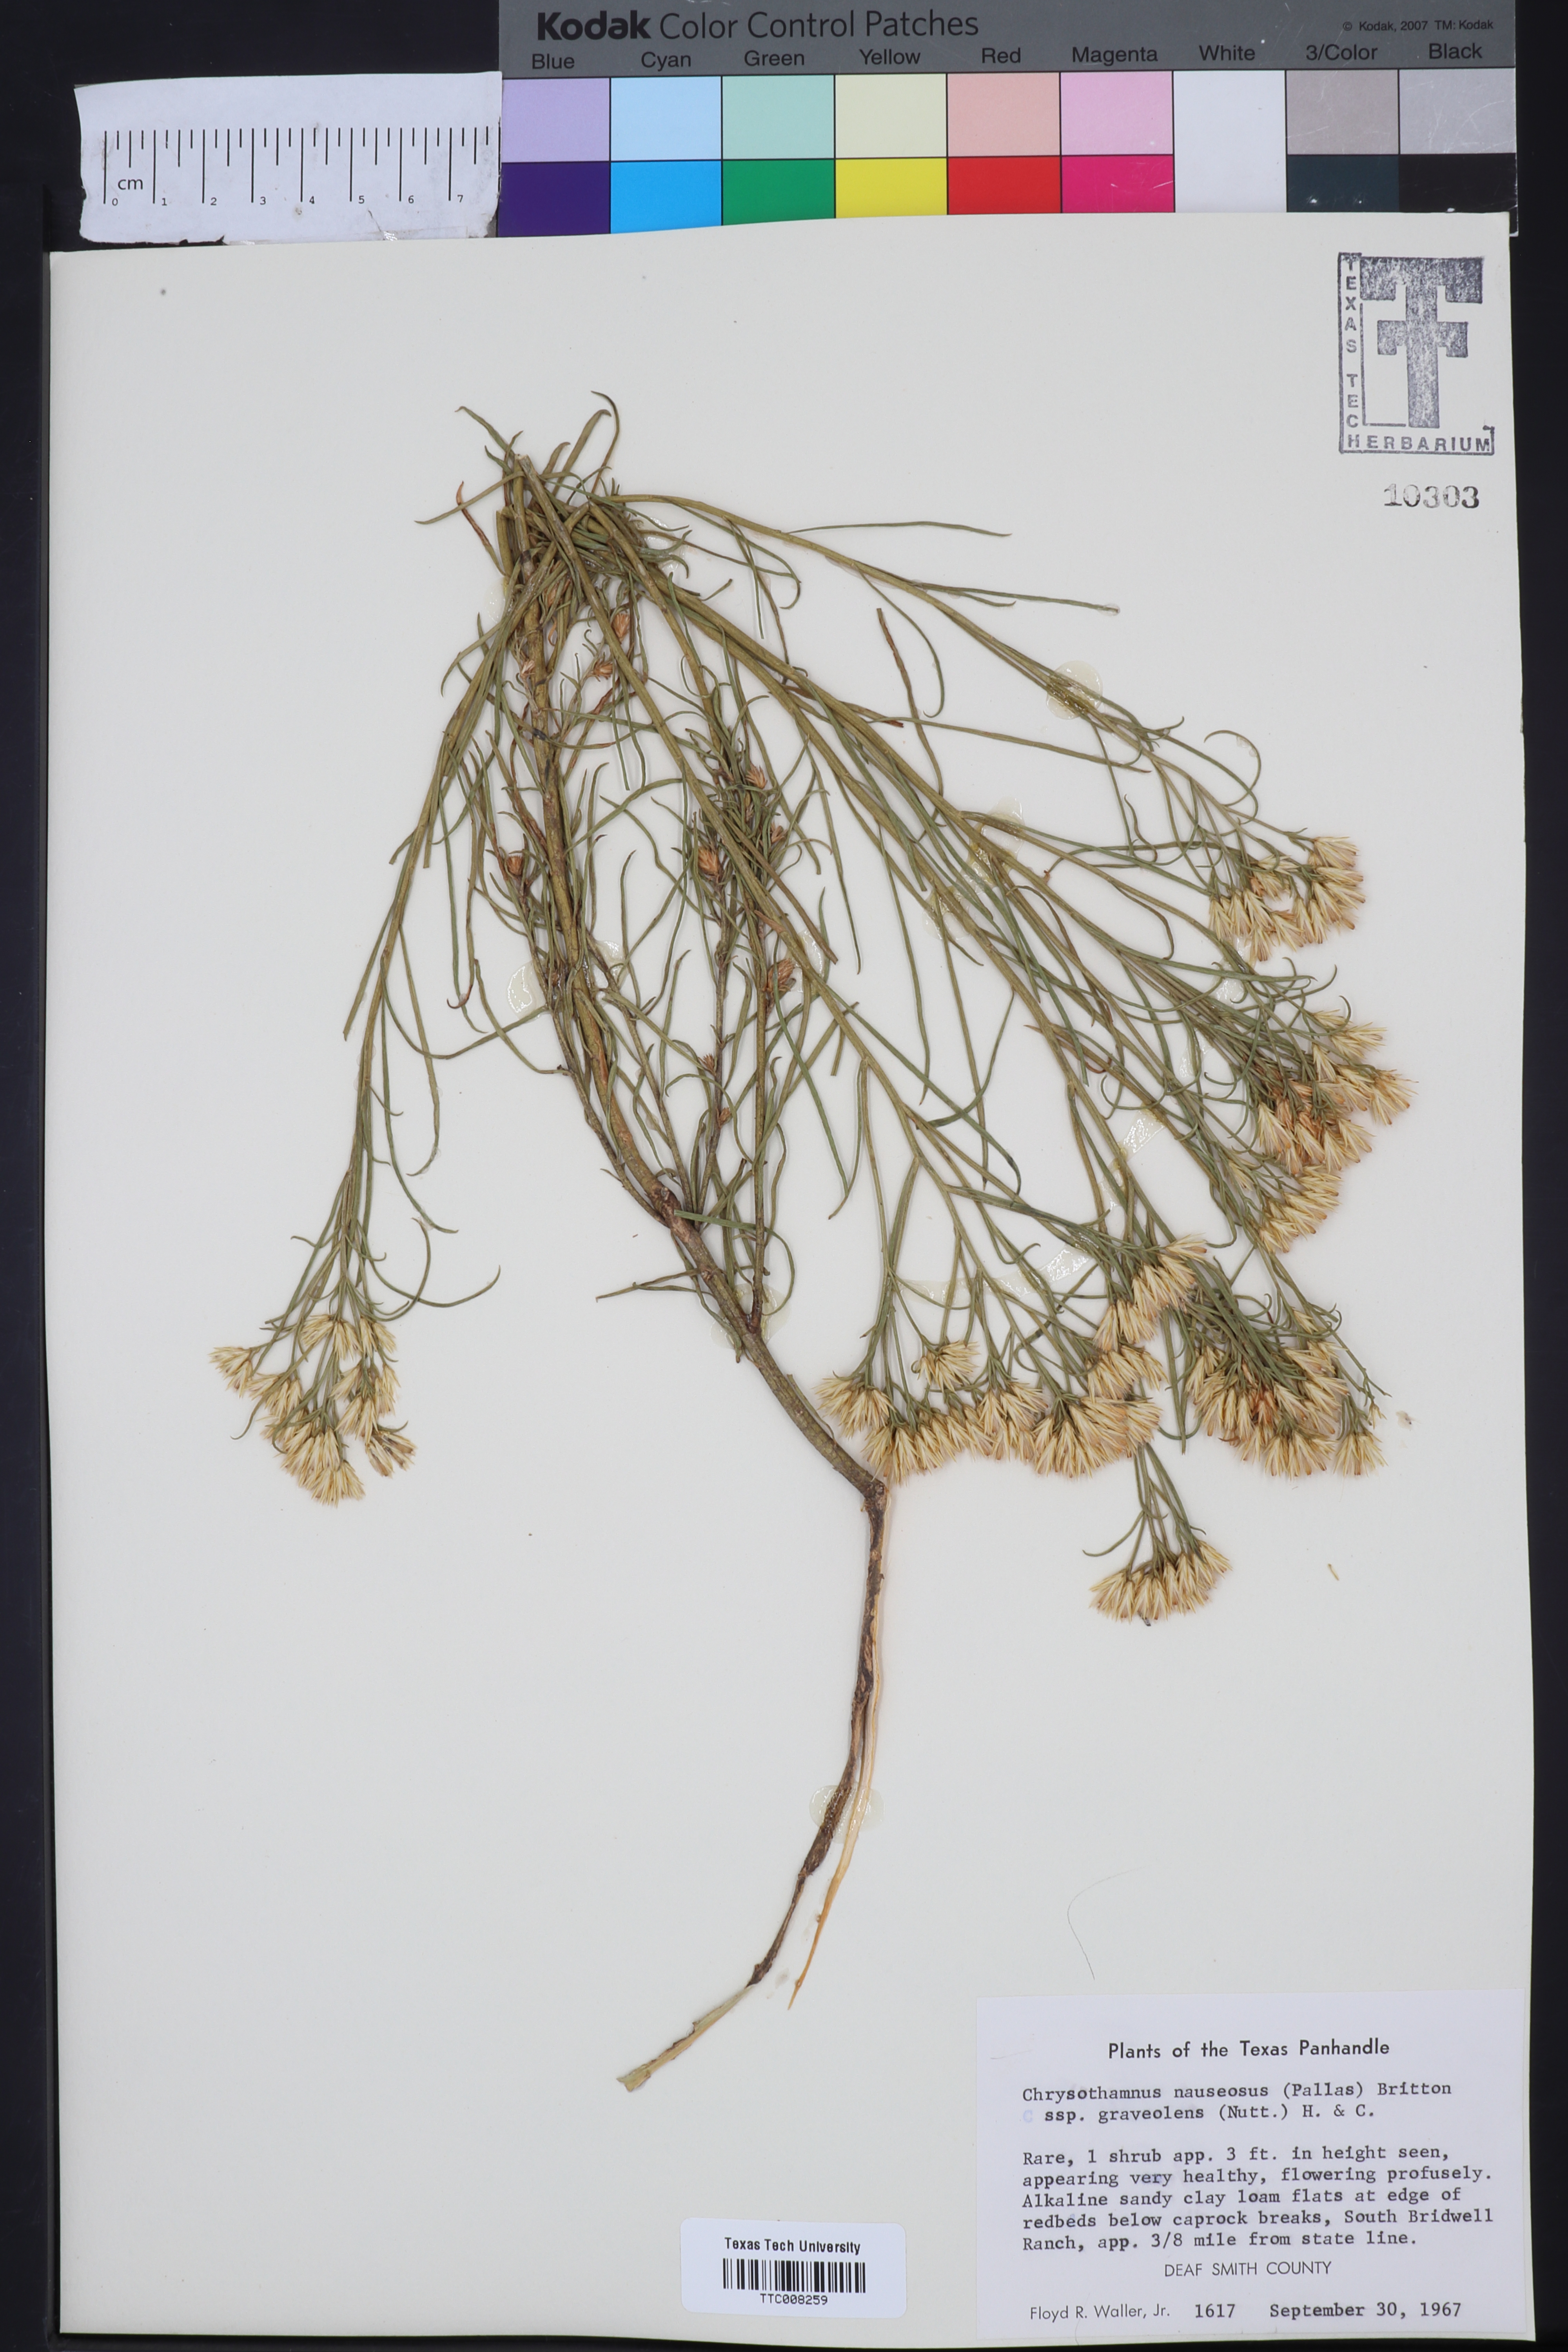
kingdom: Plantae
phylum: Tracheophyta
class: Magnoliopsida
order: Asterales
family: Asteraceae
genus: Ericameria
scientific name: Ericameria nauseosa
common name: Rubber rabbitbrush
